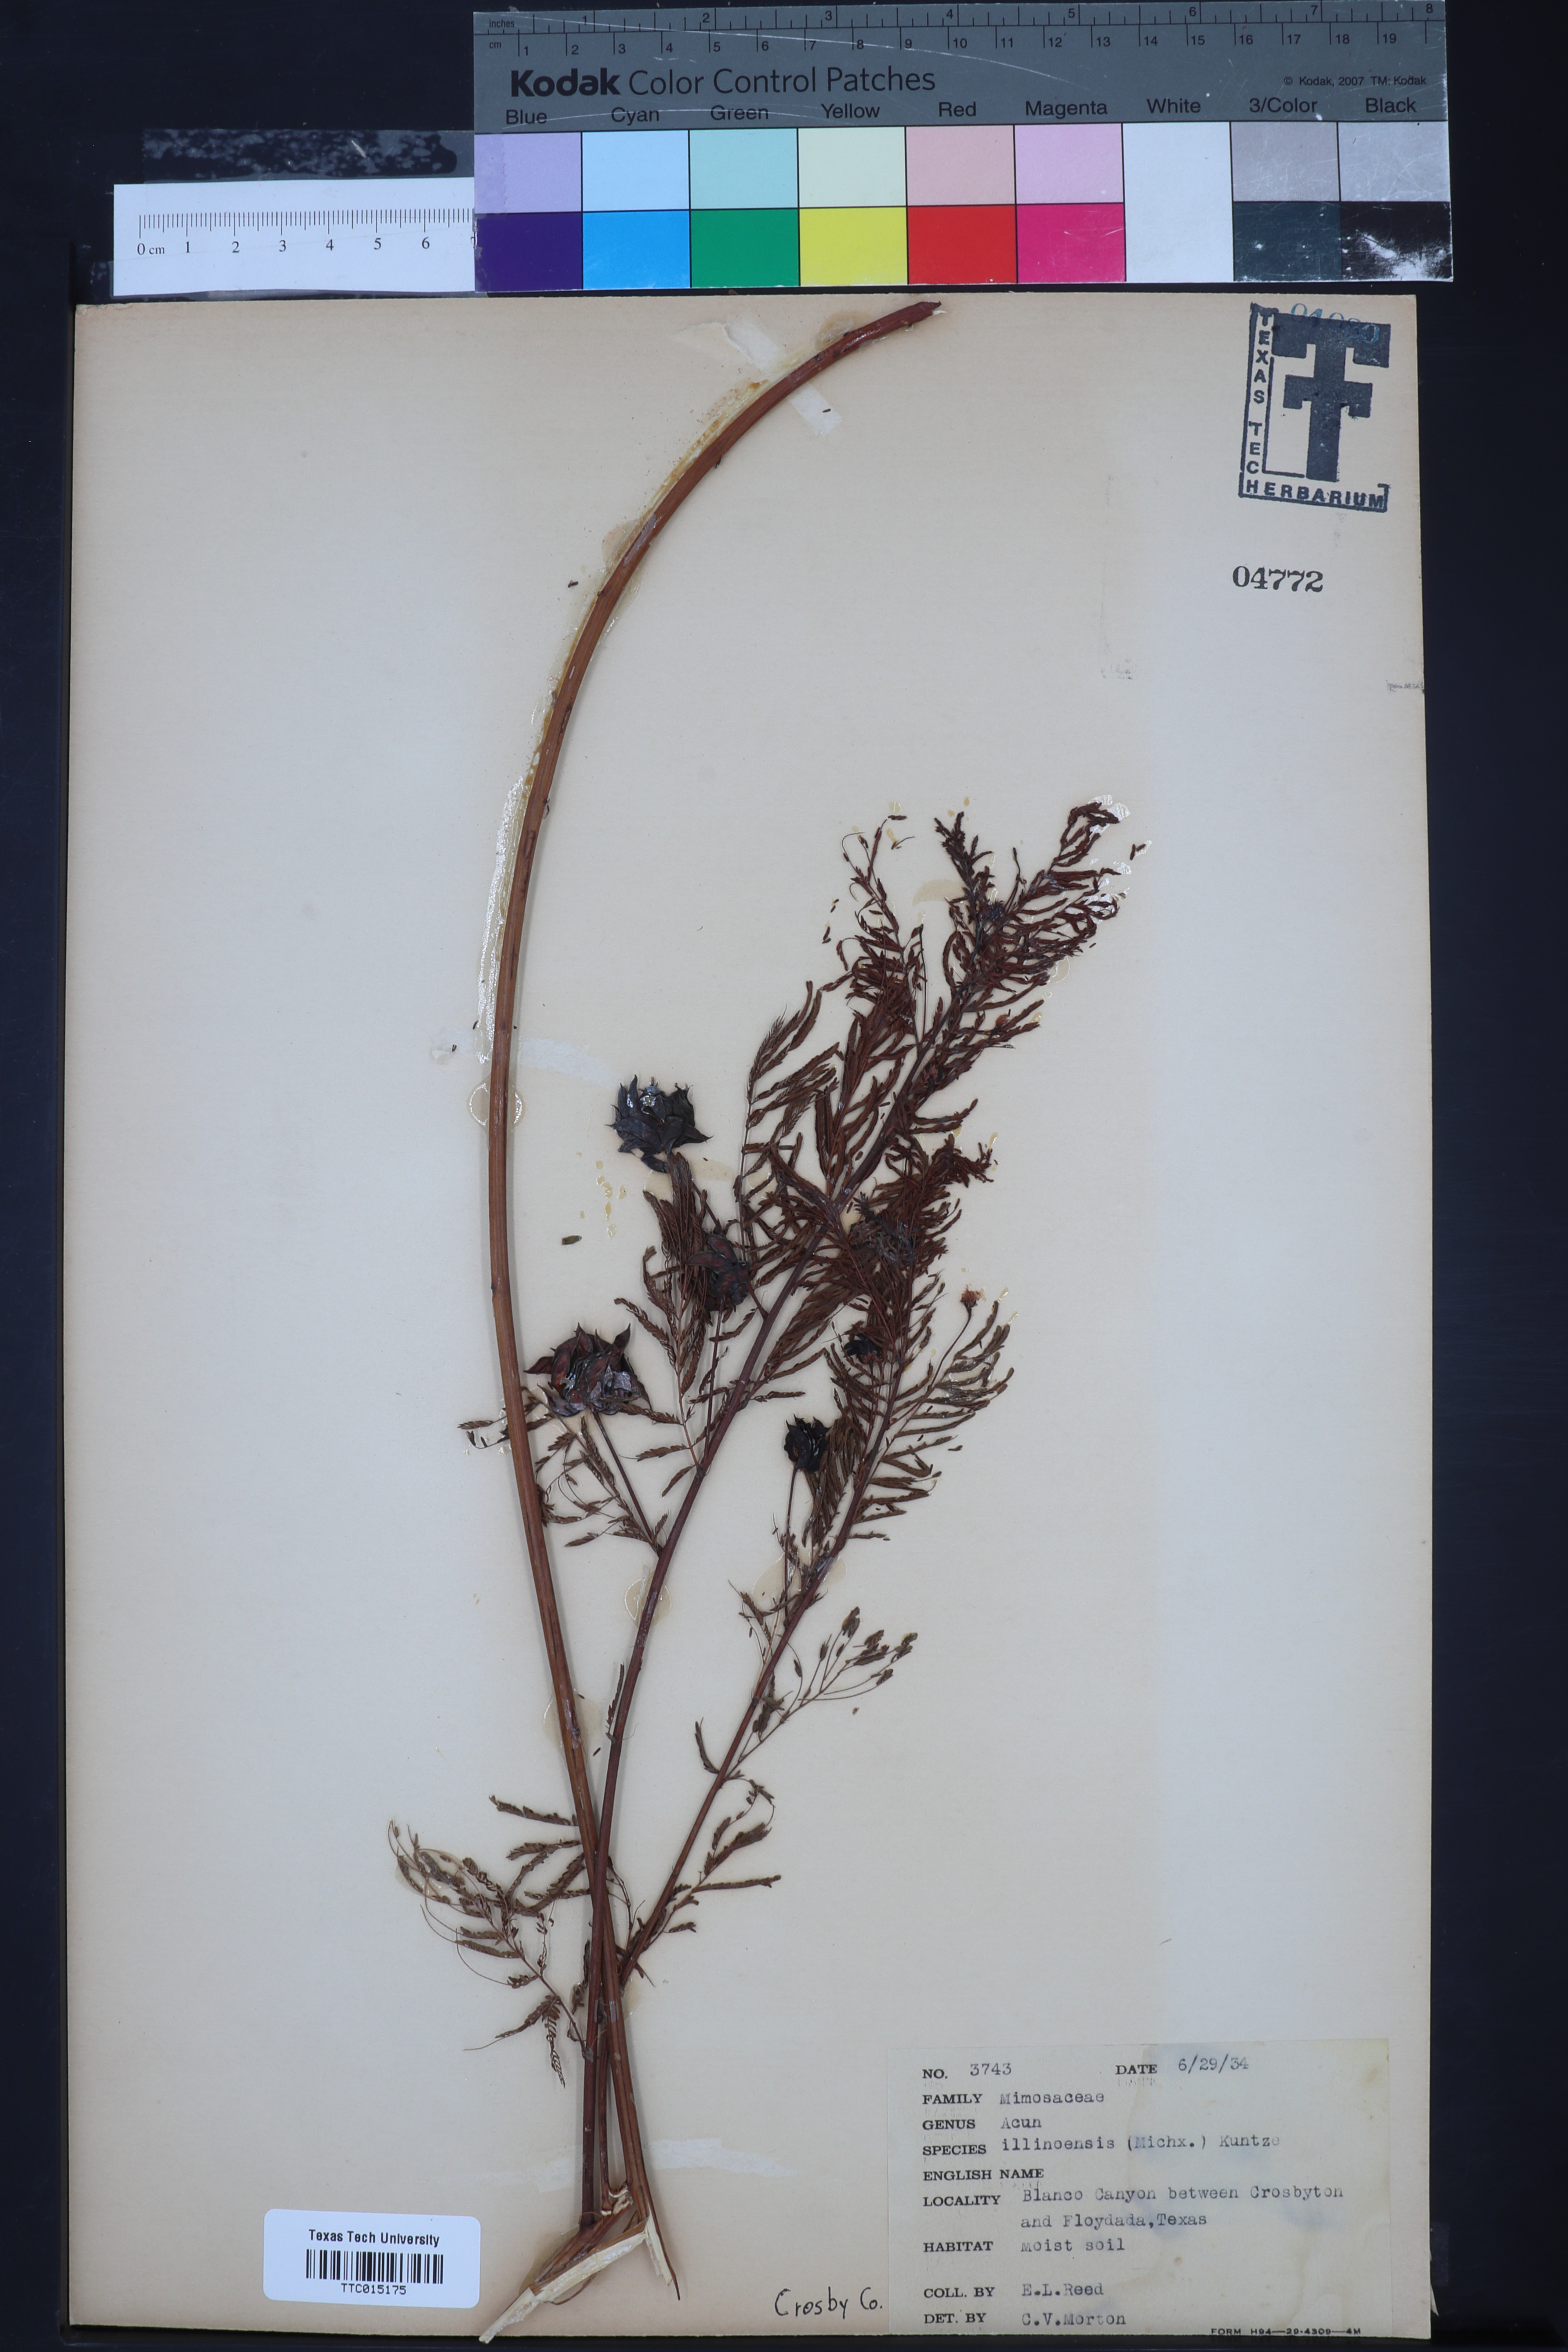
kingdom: Plantae
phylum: Tracheophyta
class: Magnoliopsida
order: Fabales
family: Fabaceae
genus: Desmanthus
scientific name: Desmanthus illinoensis
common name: Illinois bundle-flower
